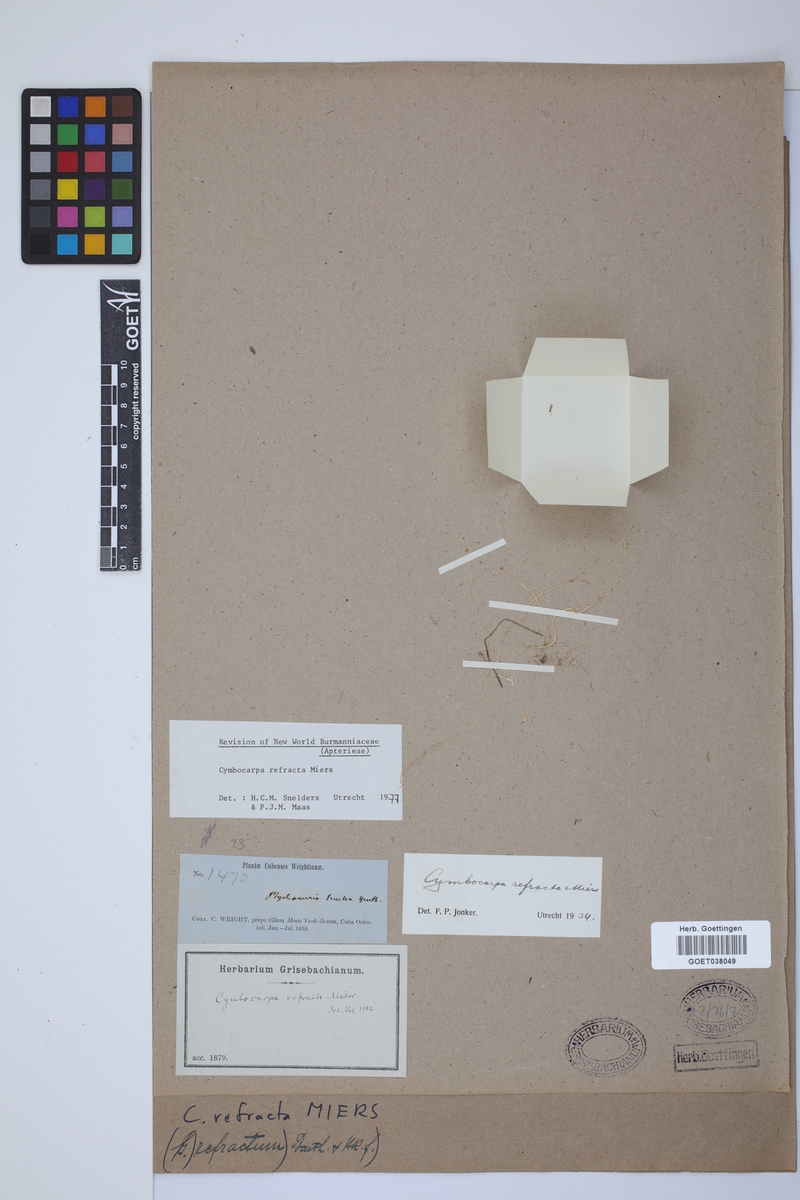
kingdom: Plantae
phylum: Tracheophyta
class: Liliopsida
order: Dioscoreales
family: Burmanniaceae
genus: Gymnosiphon
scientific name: Gymnosiphon refractus
